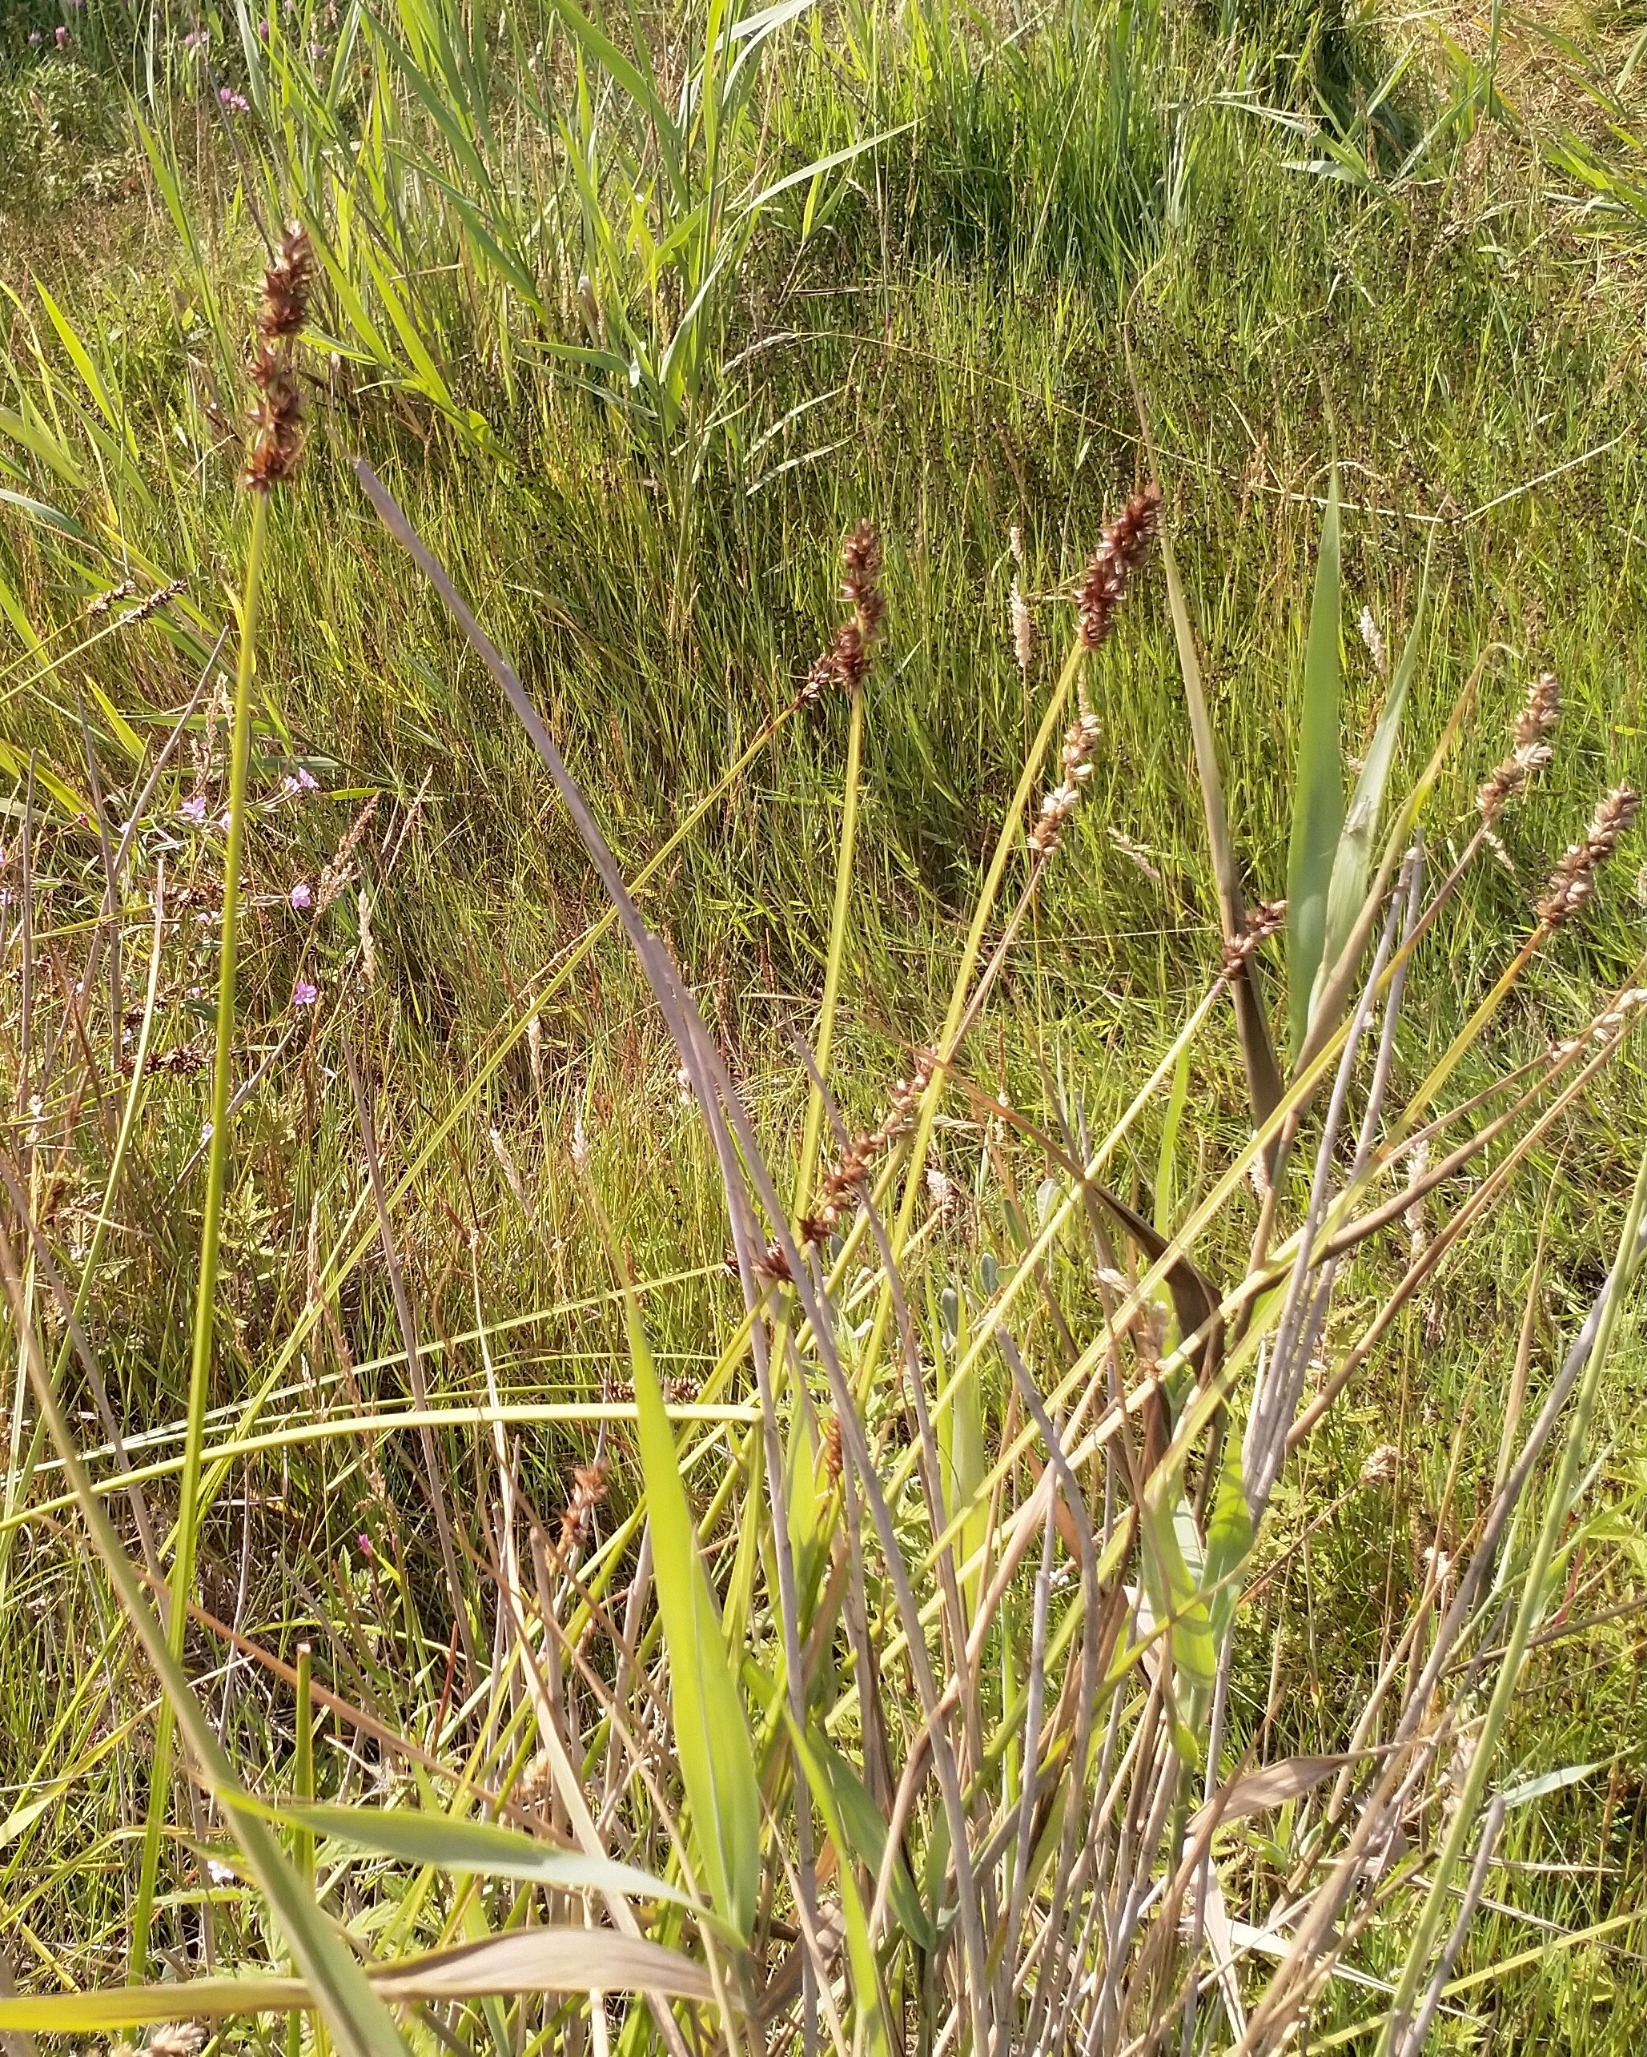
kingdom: Plantae
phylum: Tracheophyta
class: Liliopsida
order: Poales
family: Cyperaceae
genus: Carex
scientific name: Carex otrubae
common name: Sylt-star
